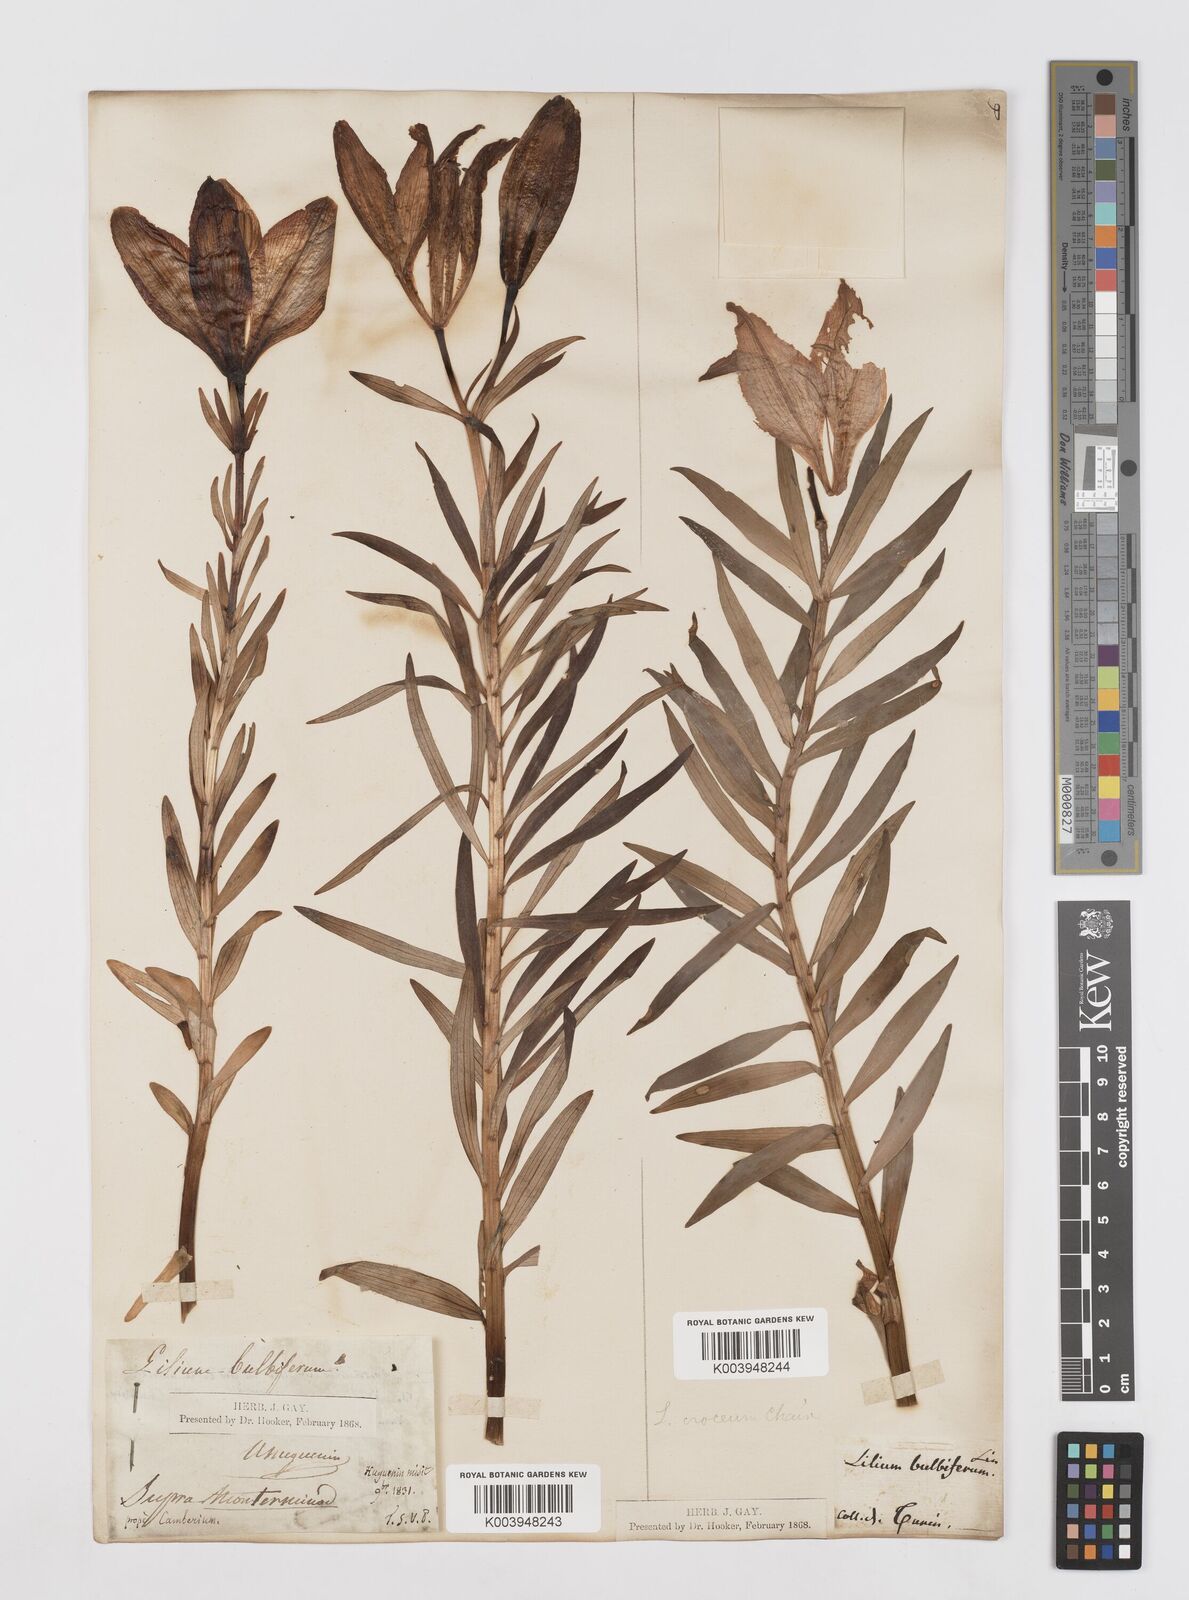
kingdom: Plantae
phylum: Tracheophyta
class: Liliopsida
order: Liliales
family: Liliaceae
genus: Lilium
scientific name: Lilium bulbiferum
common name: Orange lily
